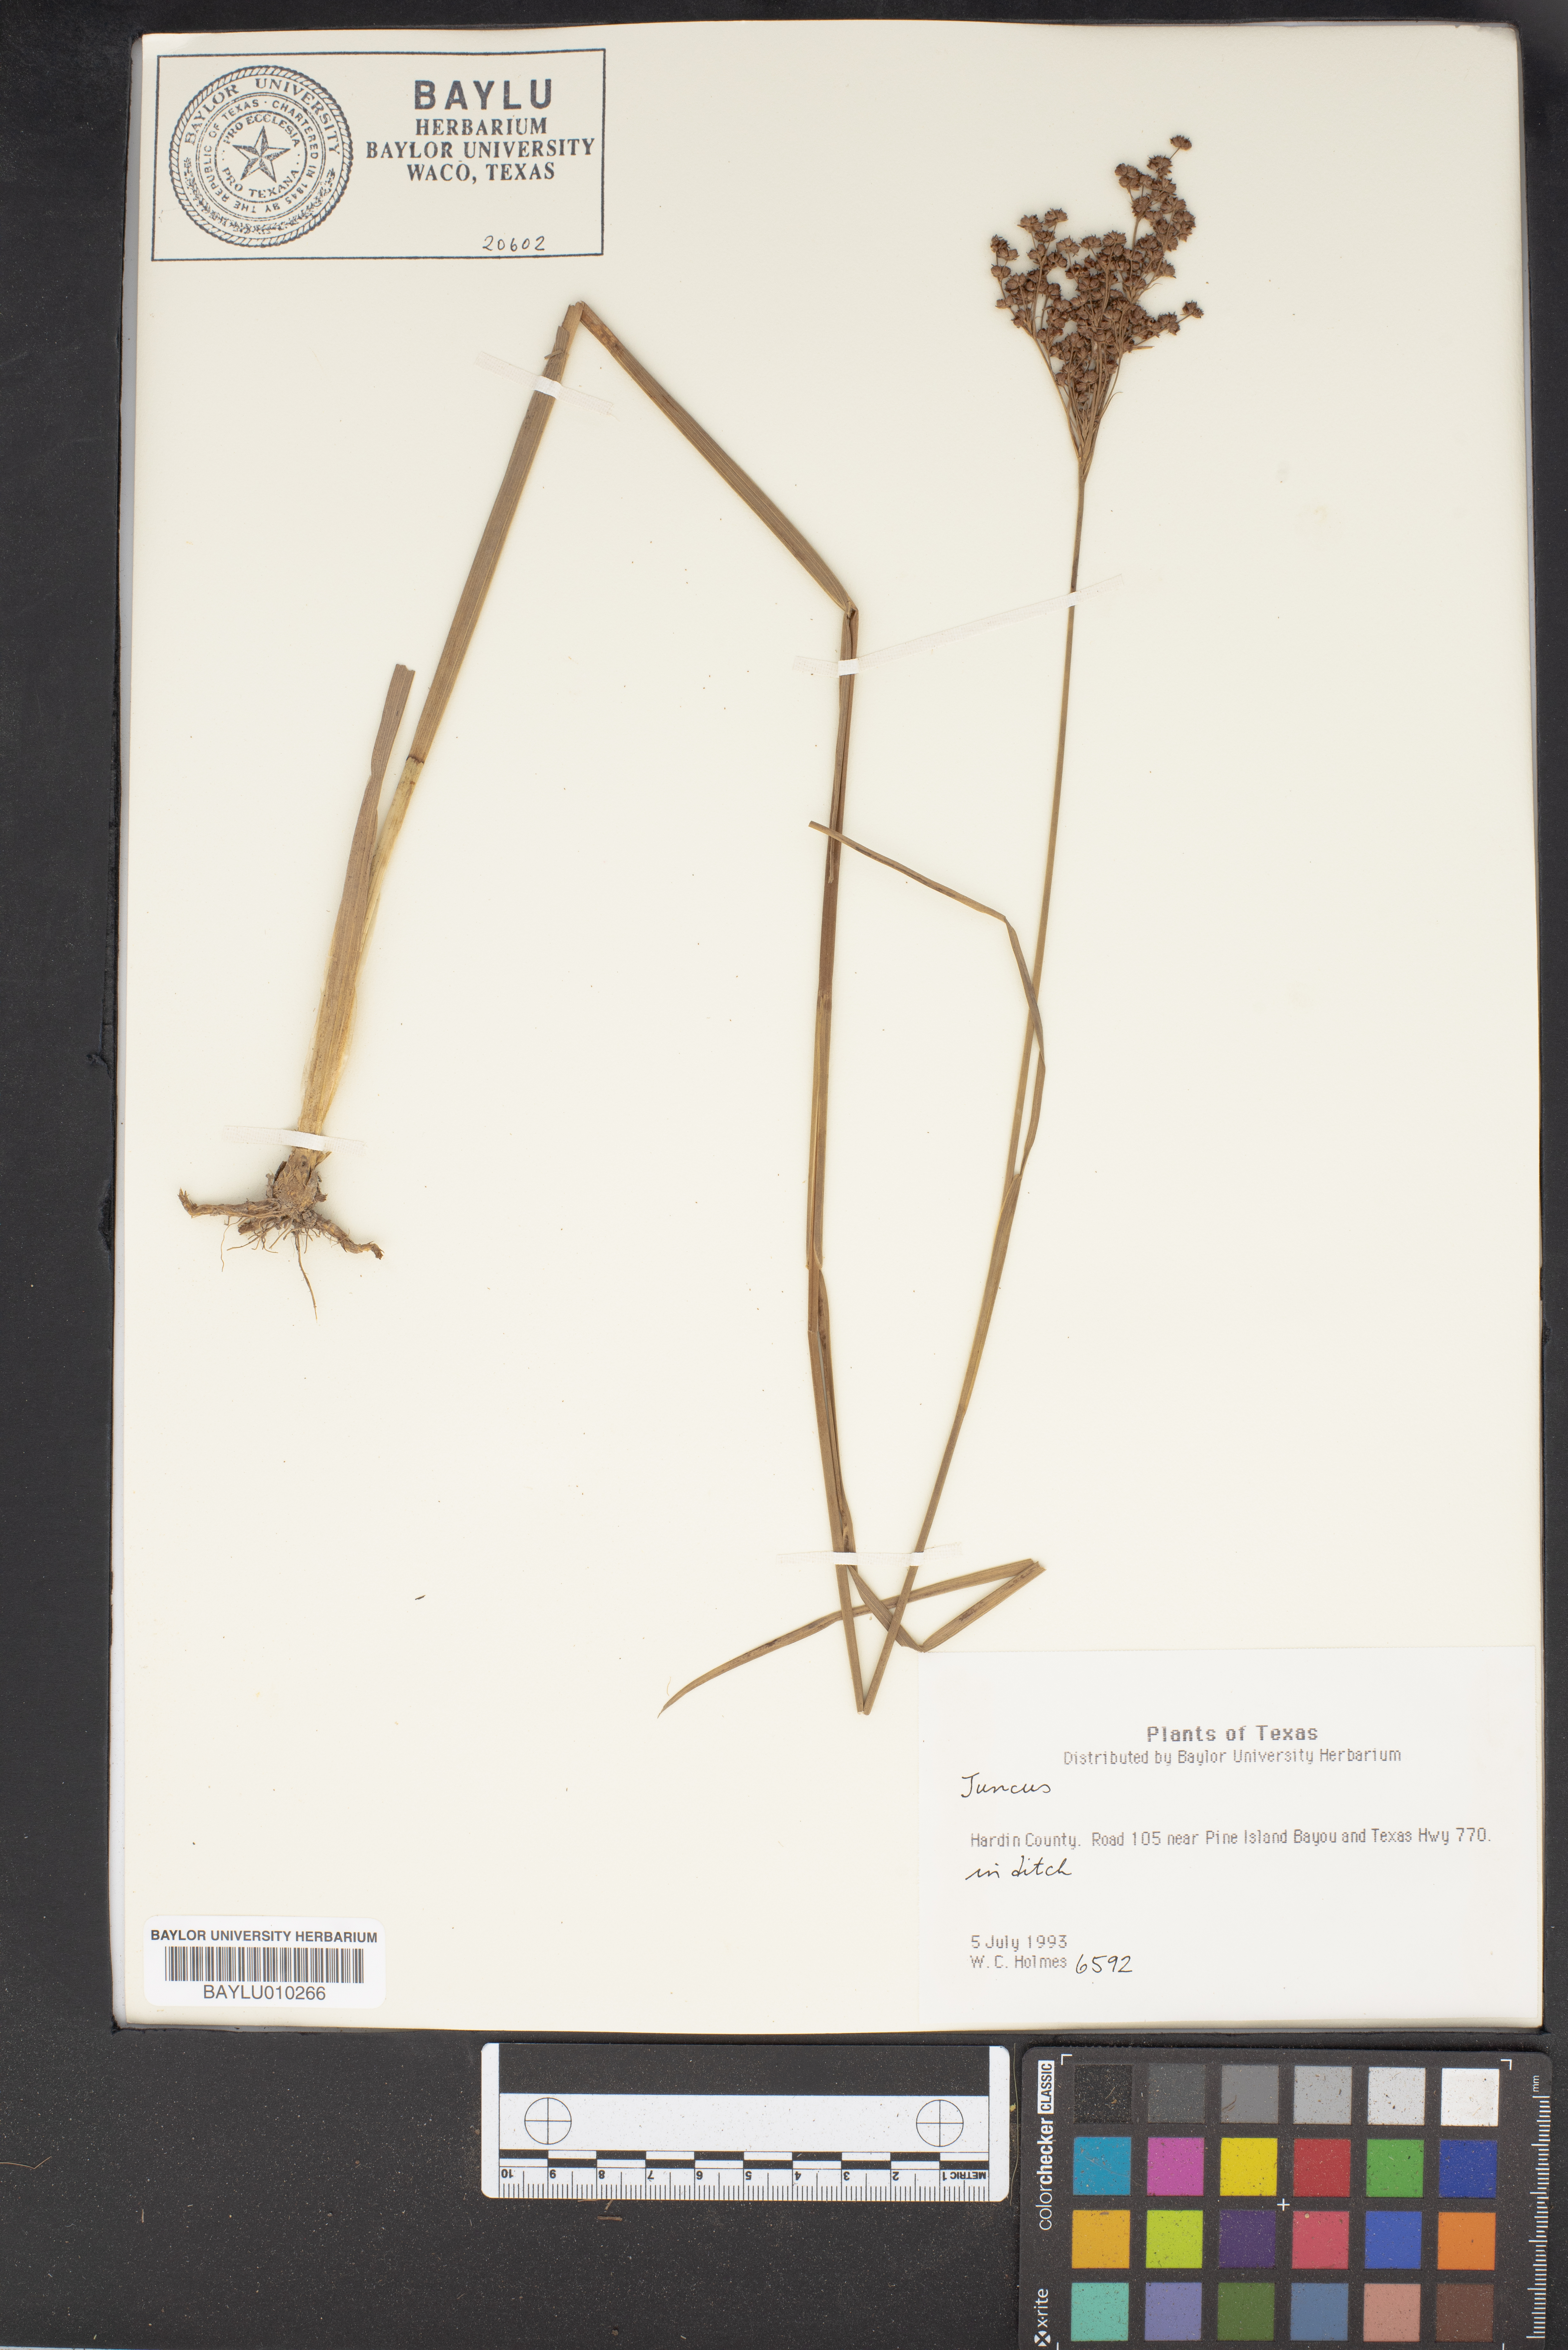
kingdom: Plantae
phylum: Tracheophyta
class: Liliopsida
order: Poales
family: Juncaceae
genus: Juncus
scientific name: Juncus
